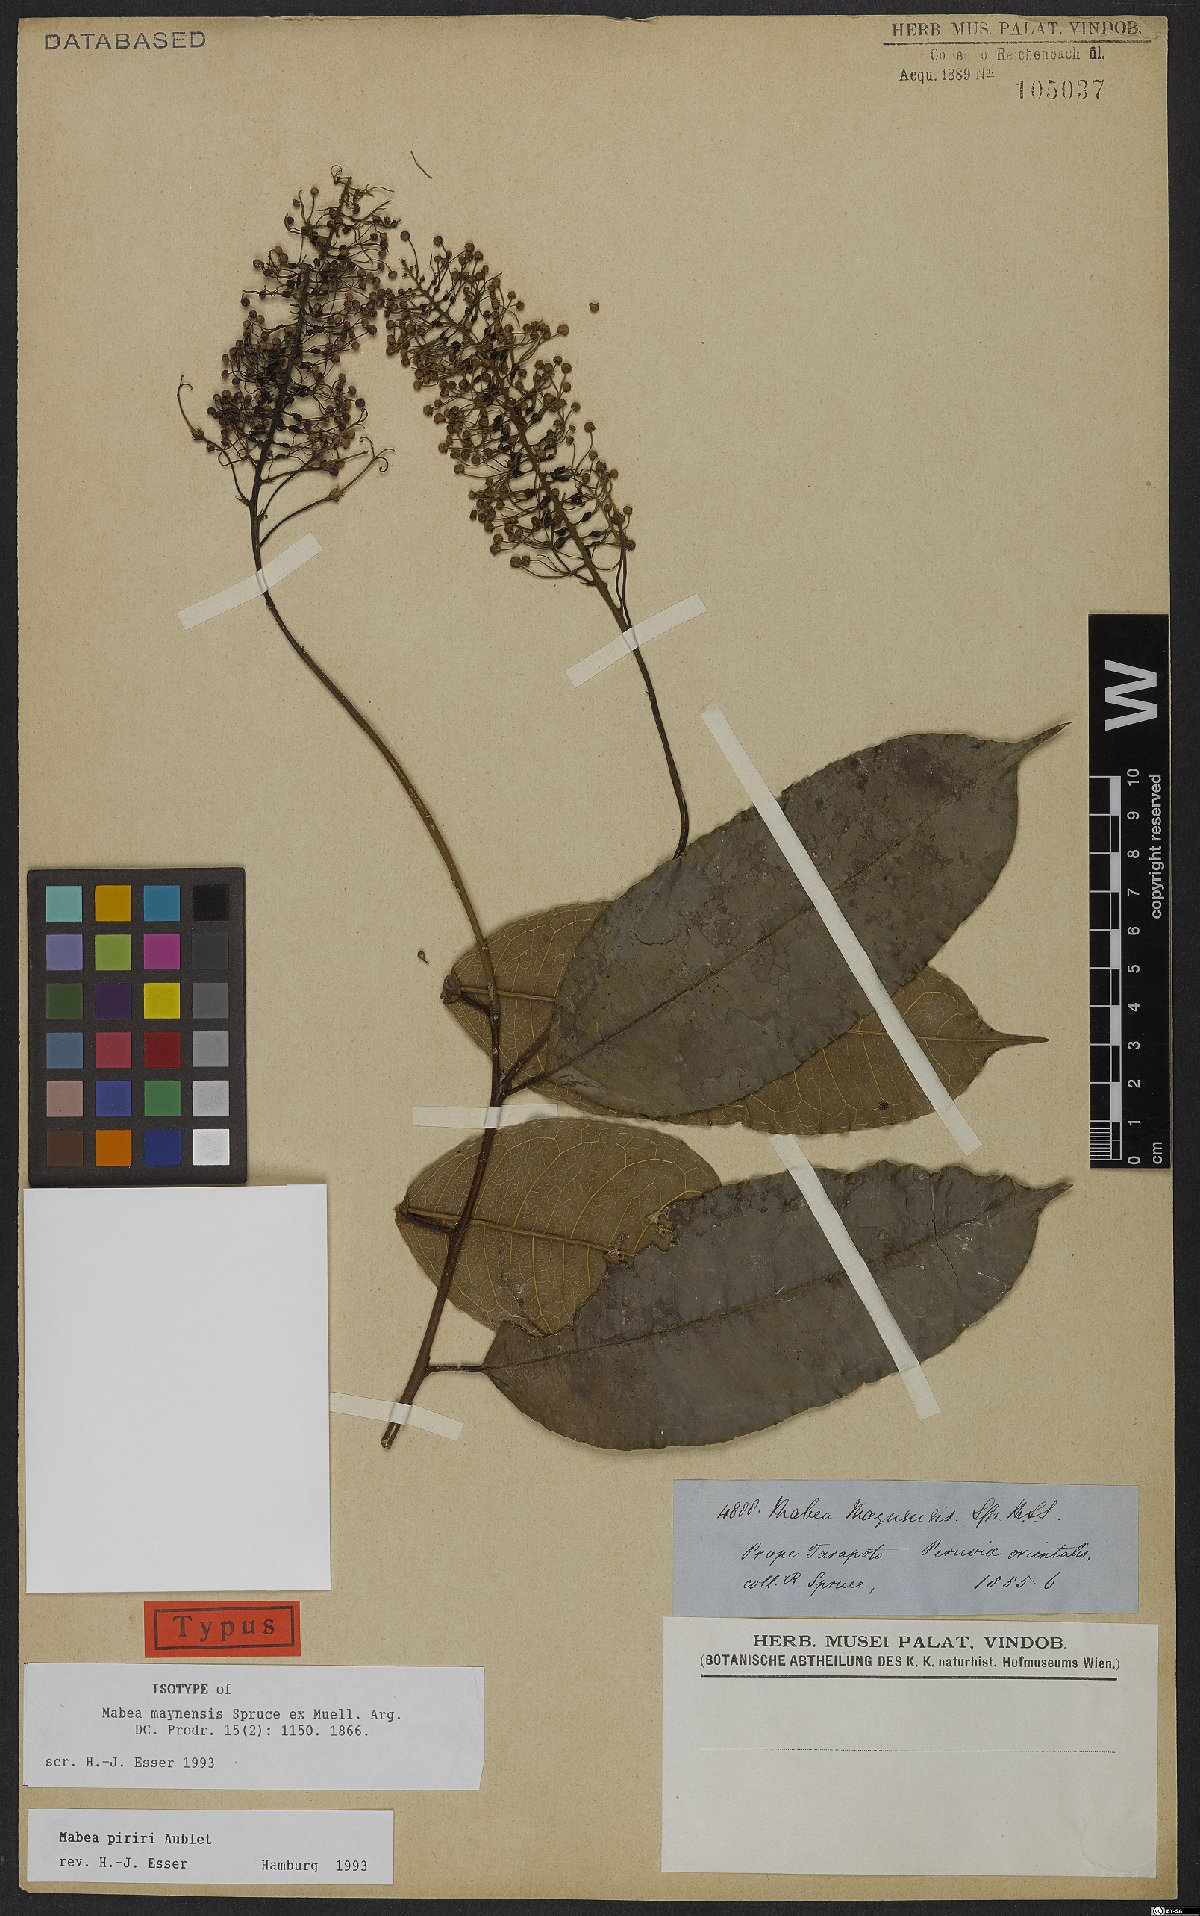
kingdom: Plantae
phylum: Tracheophyta
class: Magnoliopsida
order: Malpighiales
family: Euphorbiaceae
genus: Mabea
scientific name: Mabea piriri
